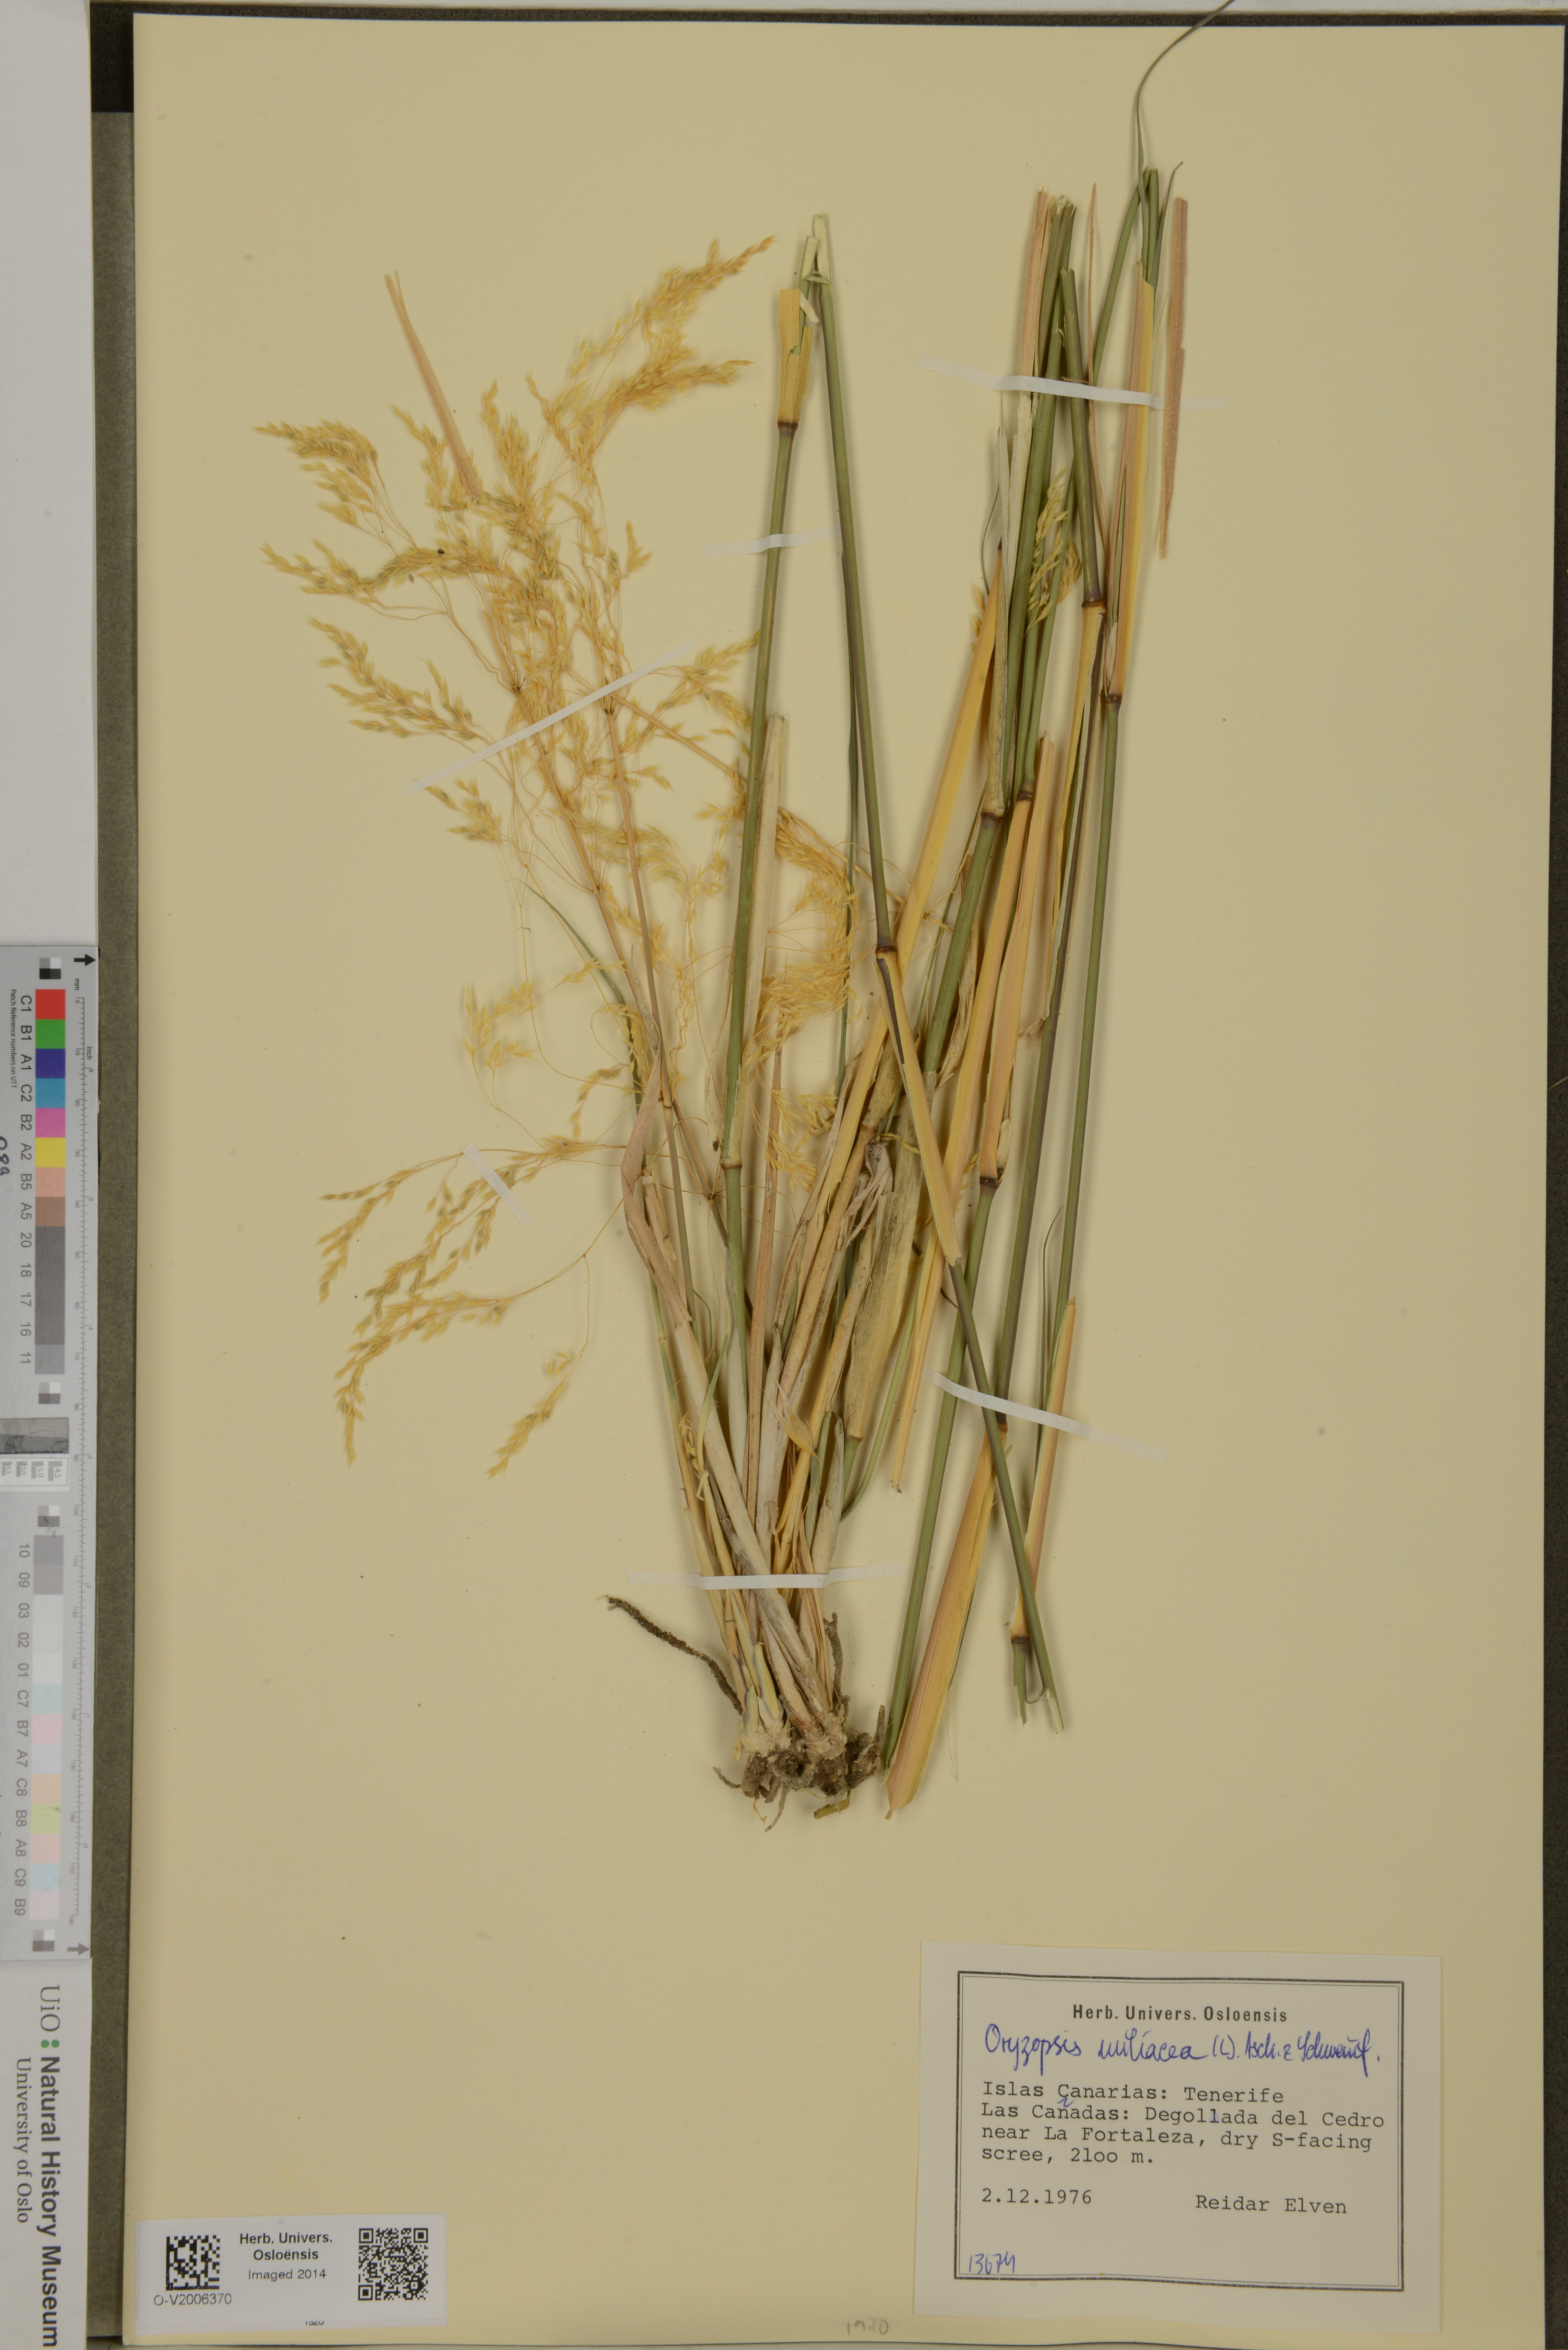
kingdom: Plantae
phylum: Tracheophyta
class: Liliopsida
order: Poales
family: Poaceae
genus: Oloptum
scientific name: Oloptum miliaceum
